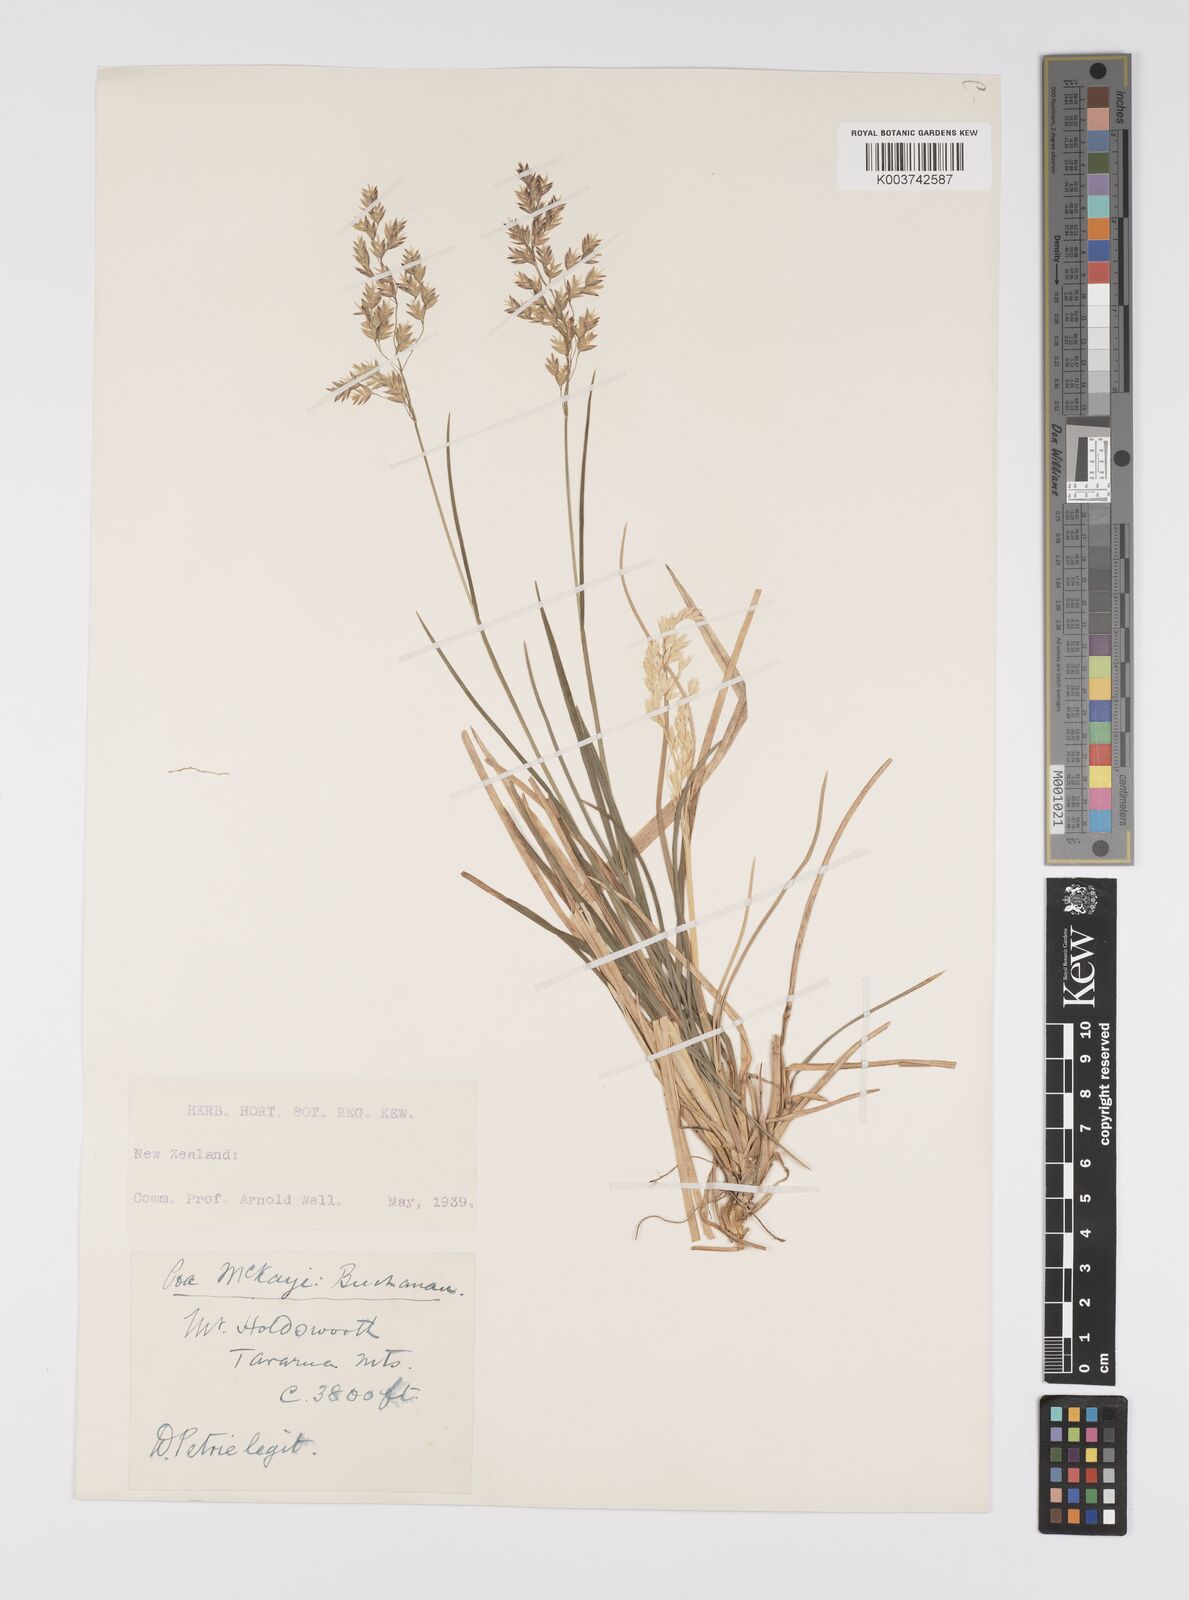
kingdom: Plantae
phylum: Tracheophyta
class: Liliopsida
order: Poales
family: Poaceae
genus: Poa
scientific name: Poa anceps
